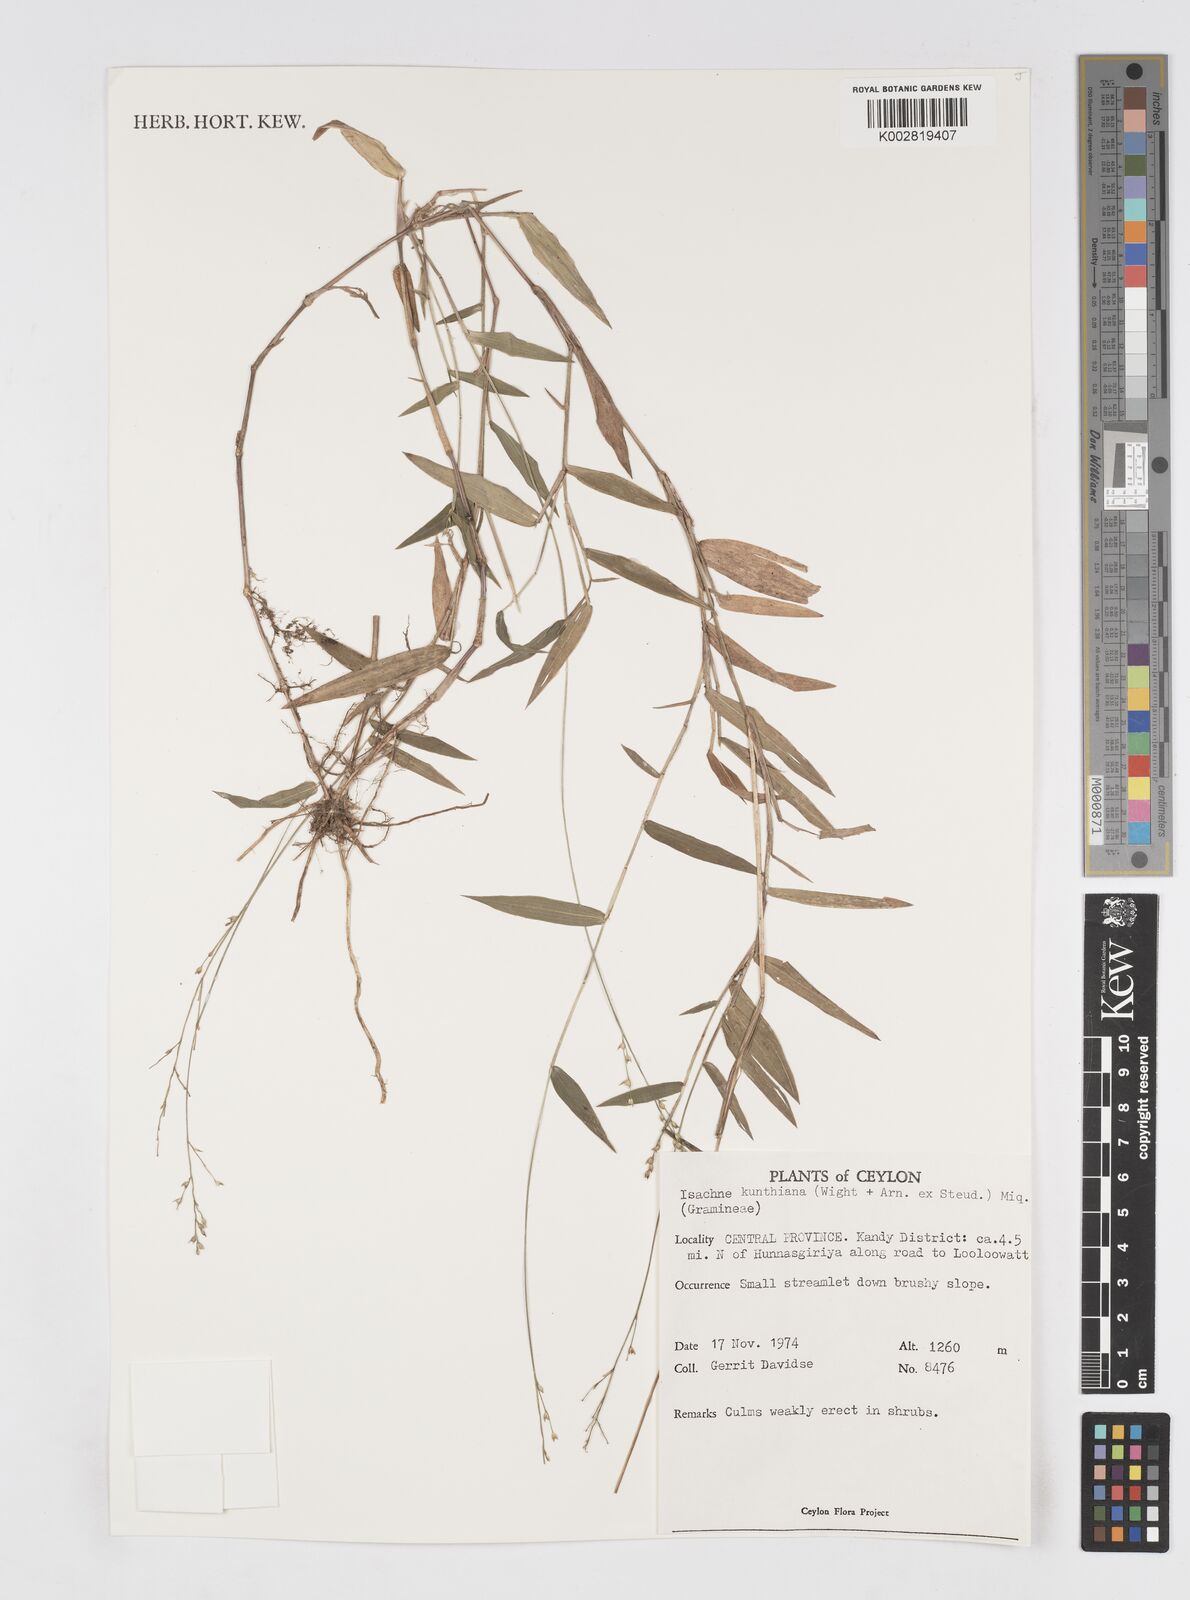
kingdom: Plantae
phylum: Tracheophyta
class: Liliopsida
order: Poales
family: Poaceae
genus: Isachne
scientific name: Isachne kunthiana
